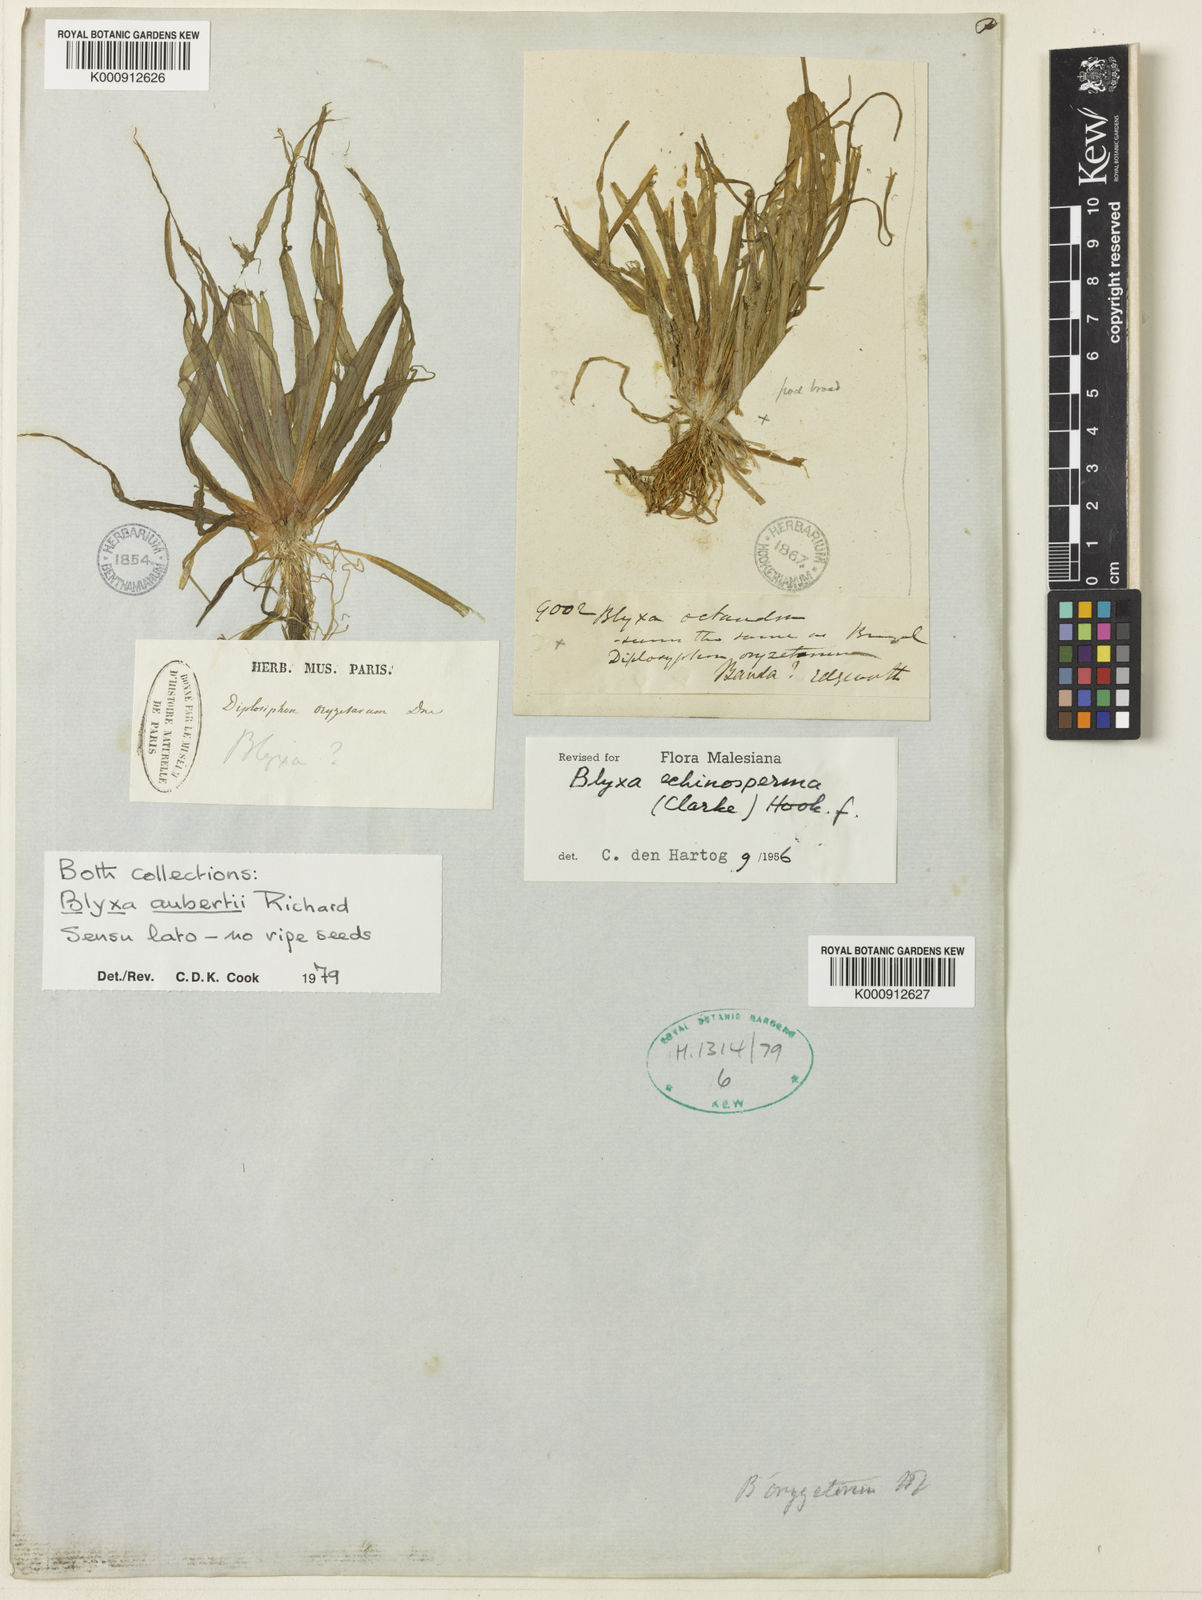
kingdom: Plantae
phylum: Tracheophyta
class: Liliopsida
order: Alismatales
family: Hydrocharitaceae
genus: Blyxa
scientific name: Blyxa
